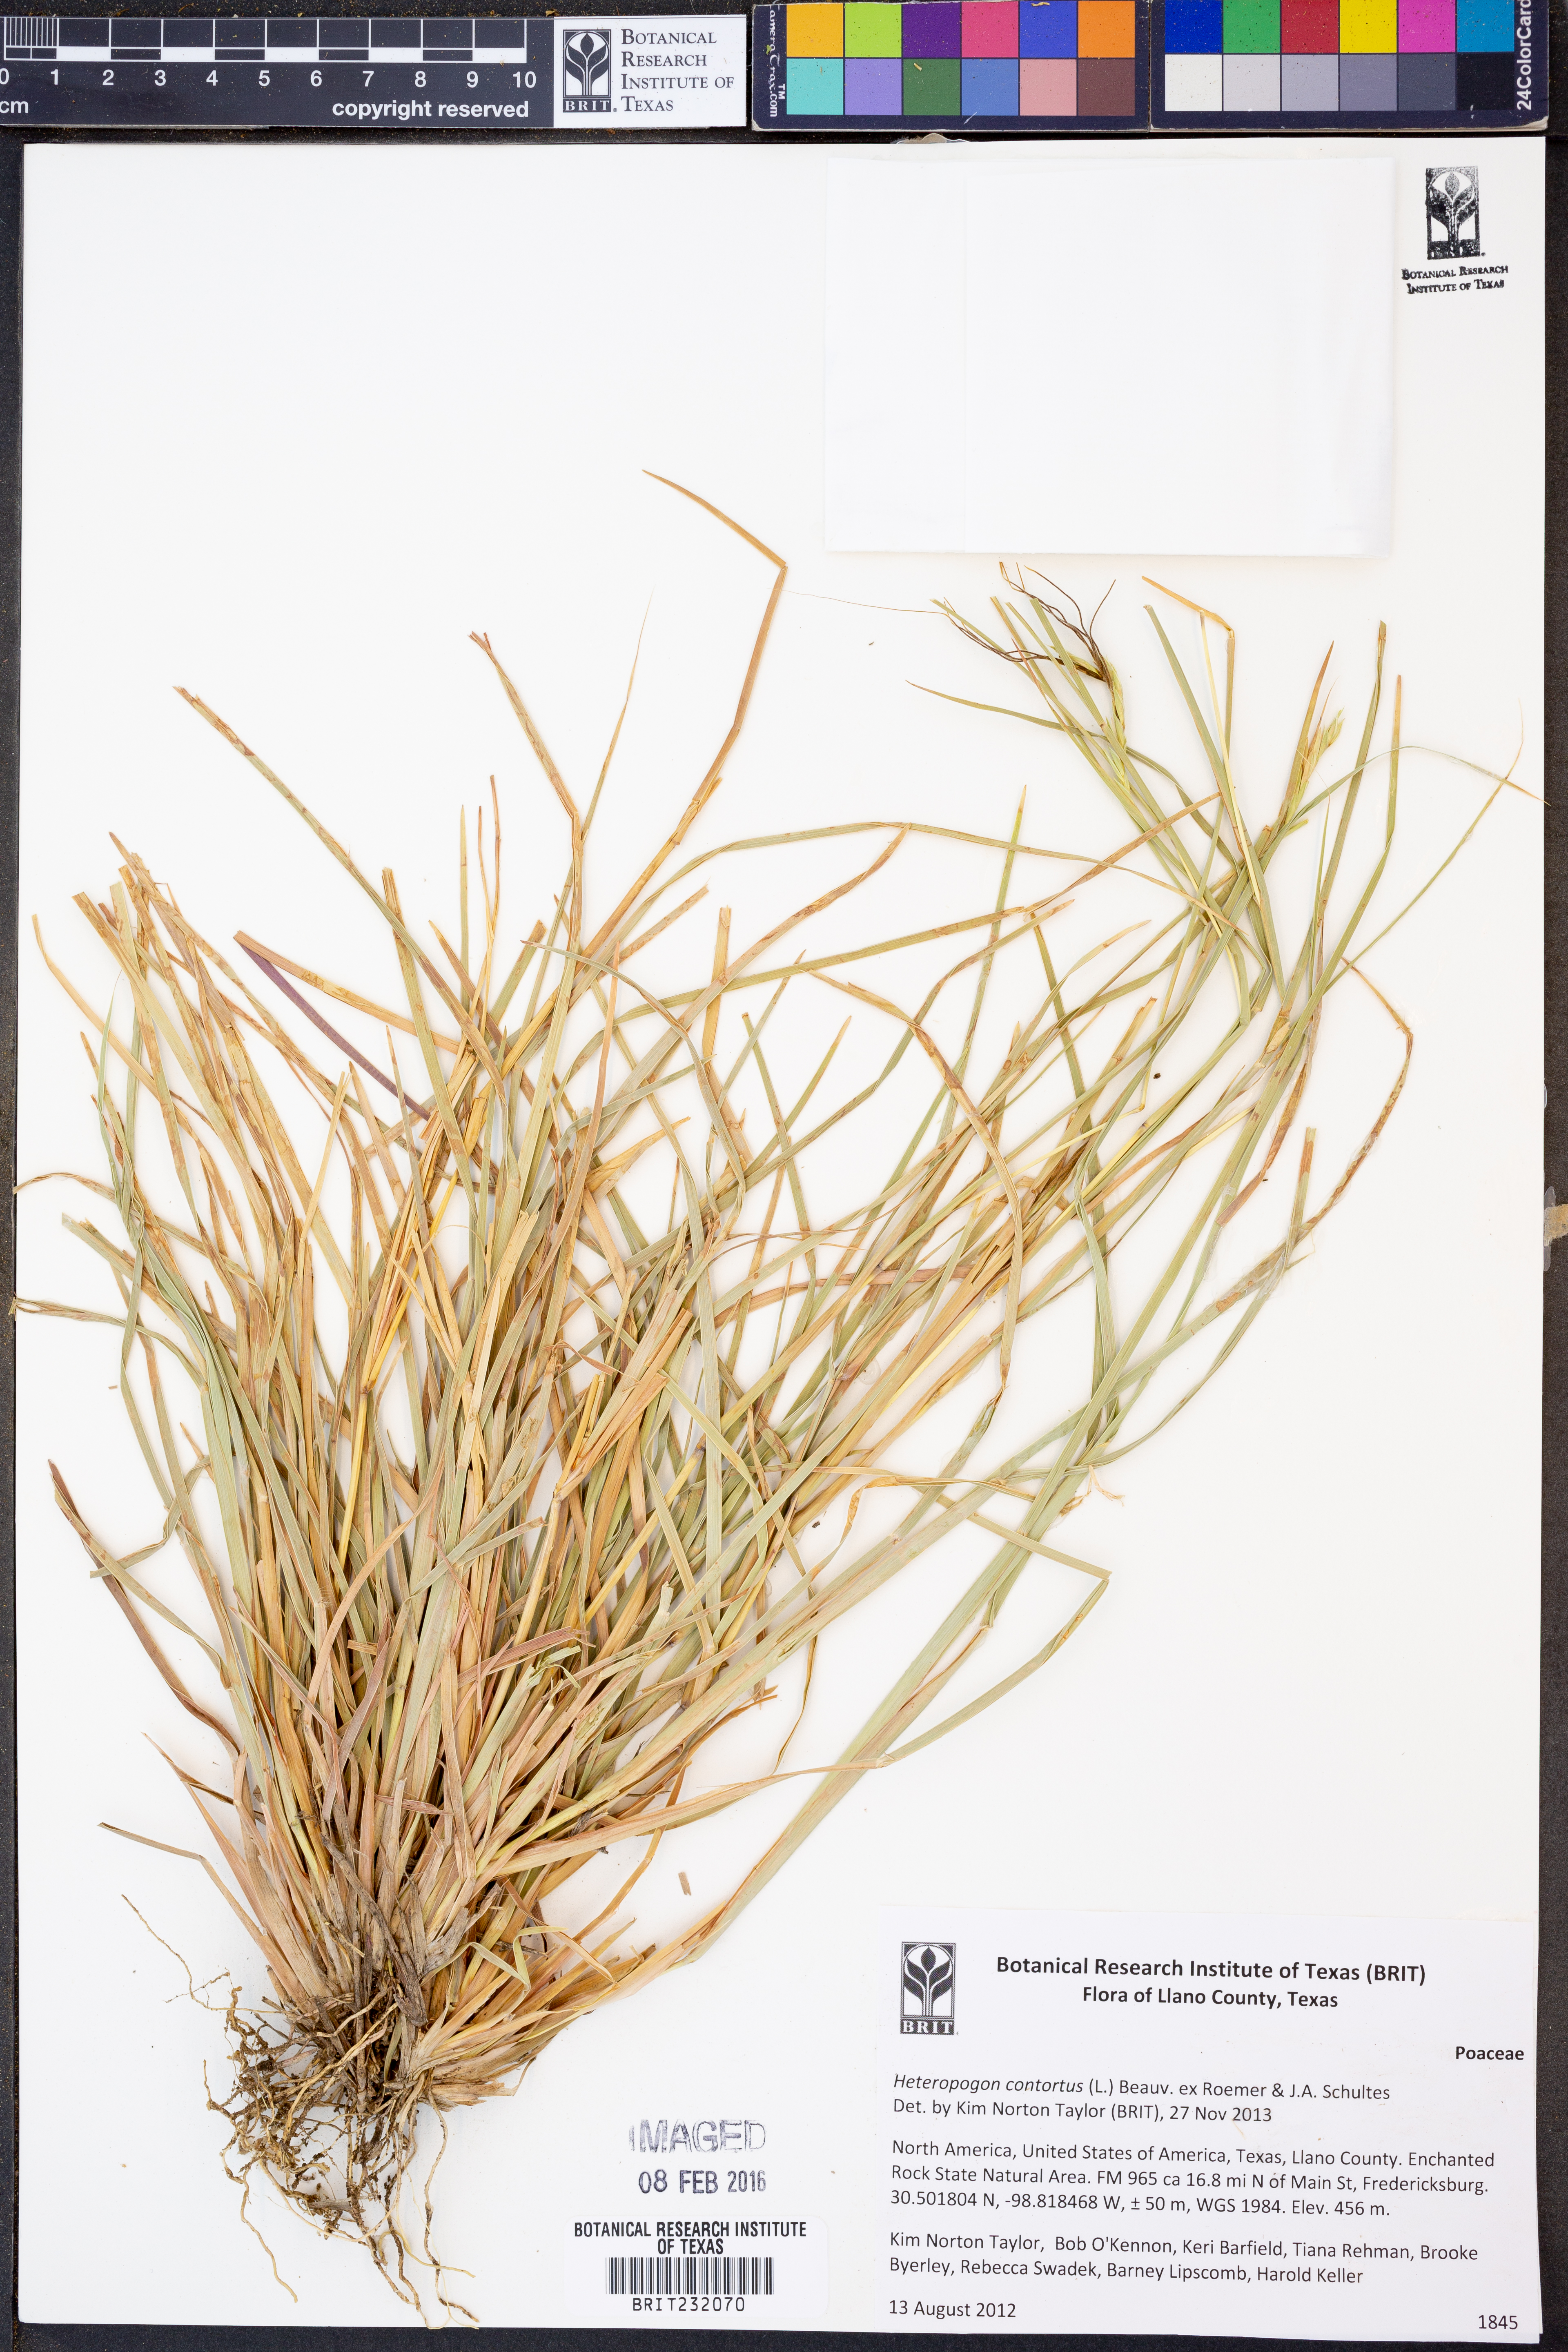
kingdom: Plantae
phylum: Tracheophyta
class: Liliopsida
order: Poales
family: Poaceae
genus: Heteropogon
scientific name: Heteropogon contortus
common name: Tanglehead
